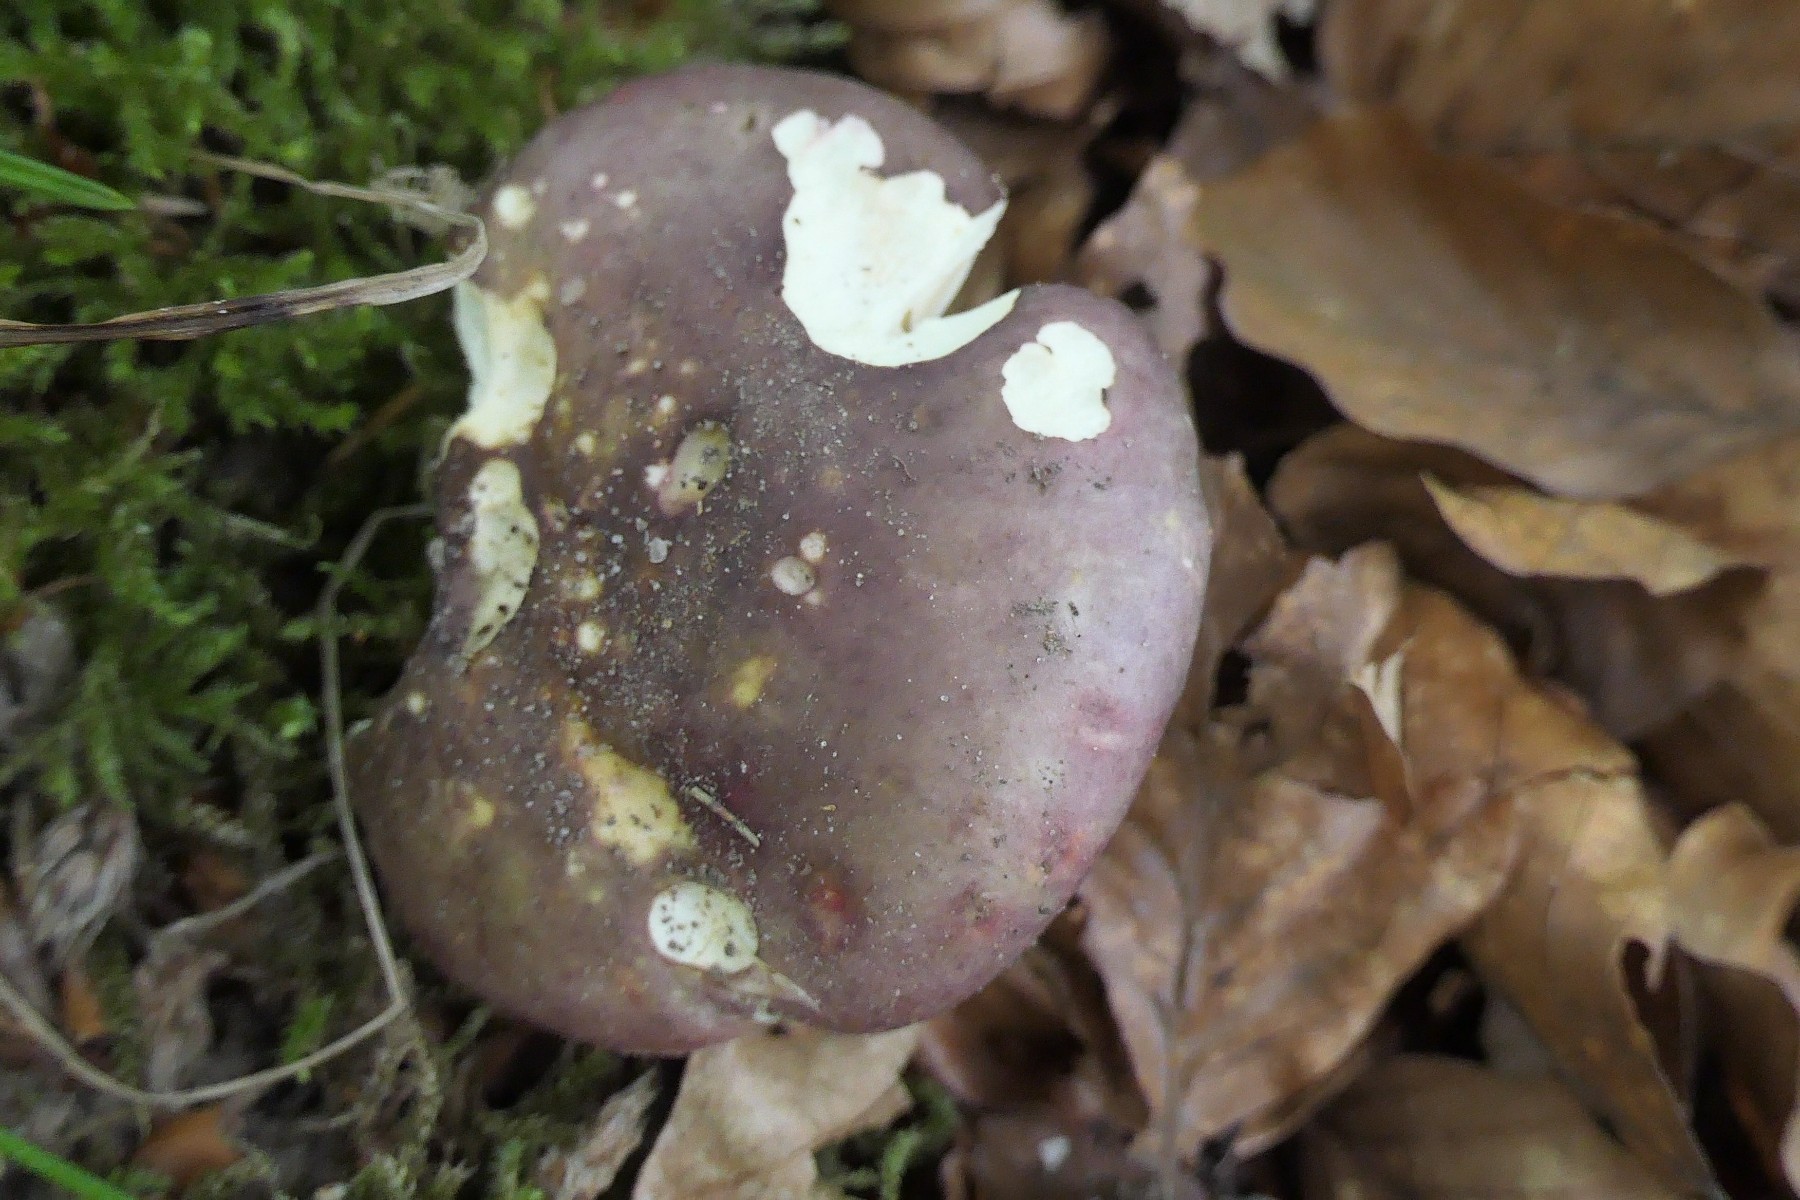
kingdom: Fungi
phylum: Basidiomycota
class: Agaricomycetes
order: Russulales
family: Russulaceae
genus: Russula
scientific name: Russula romellii
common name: romells skørhat
